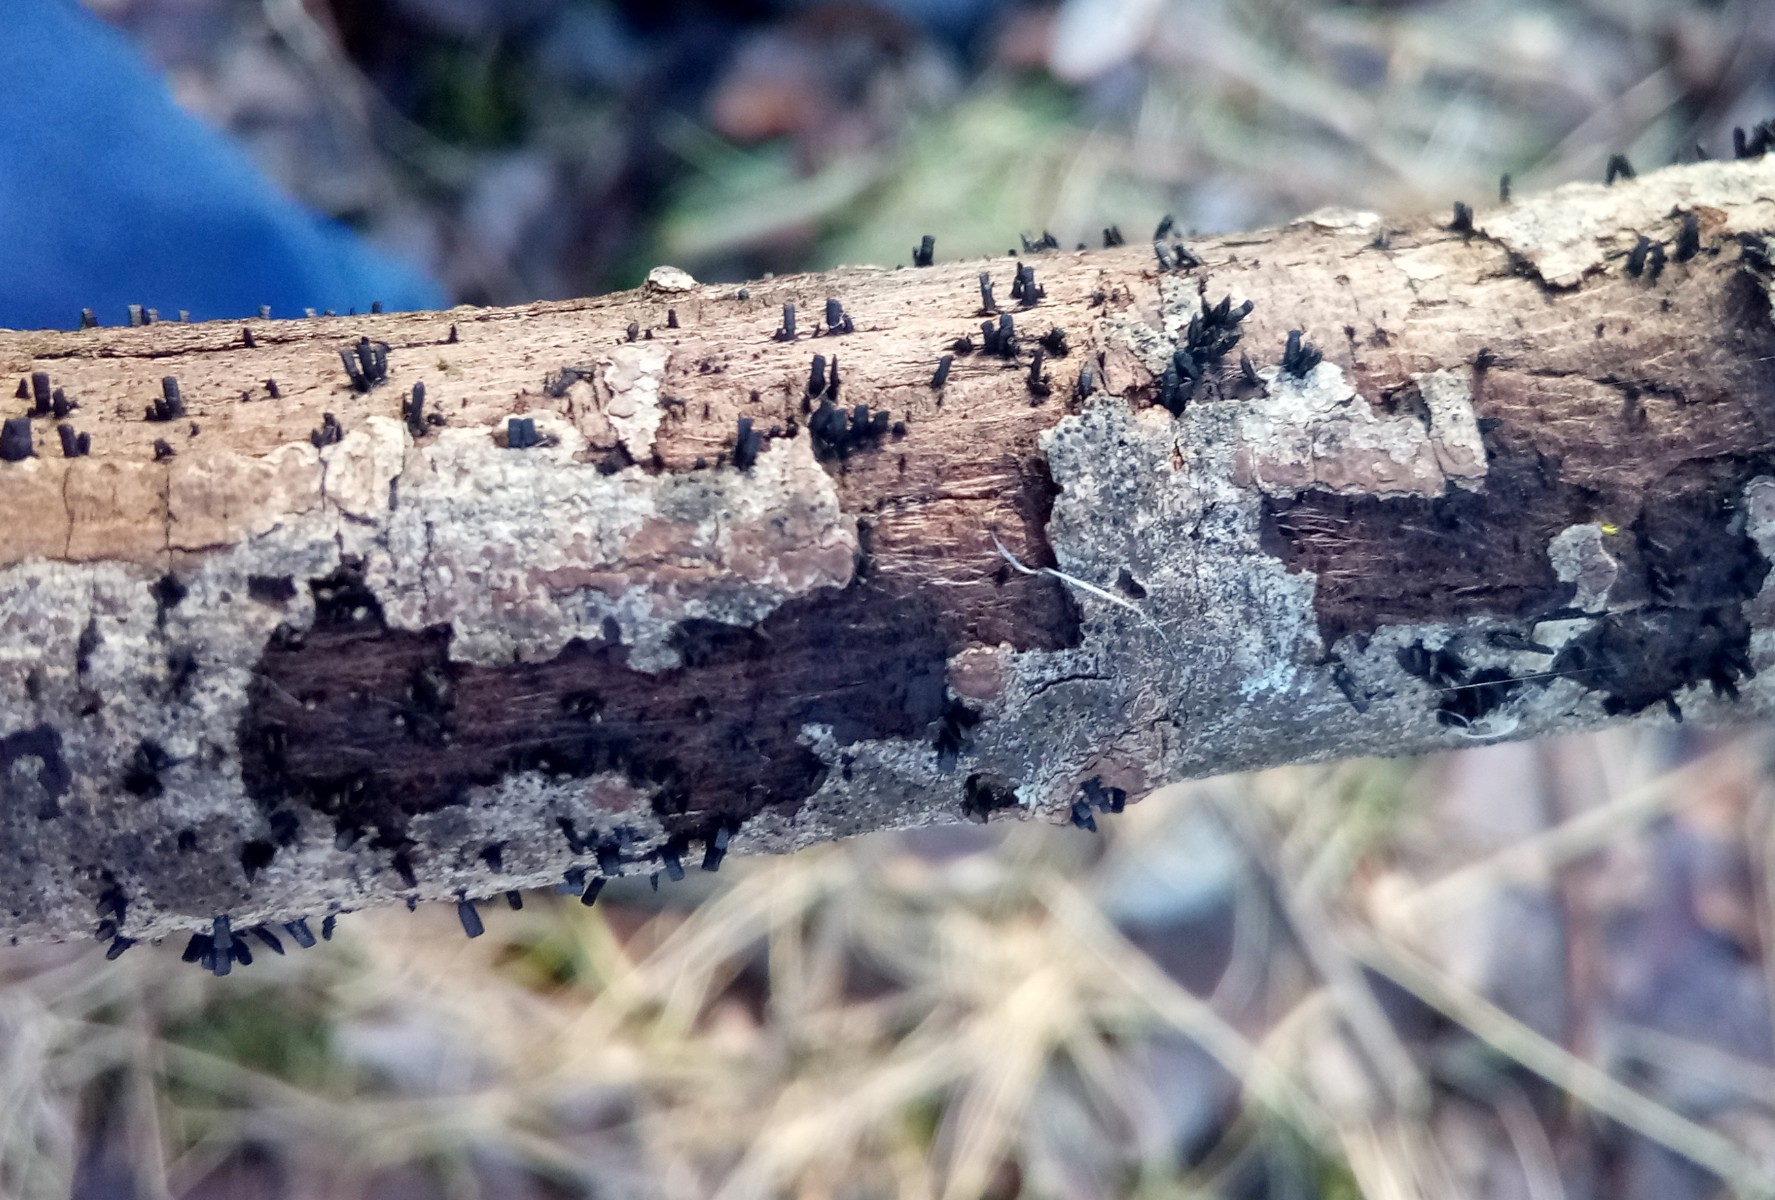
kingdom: Fungi
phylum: Ascomycota
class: Eurotiomycetes
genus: Glyphium
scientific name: Glyphium elatum
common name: kuløkse
